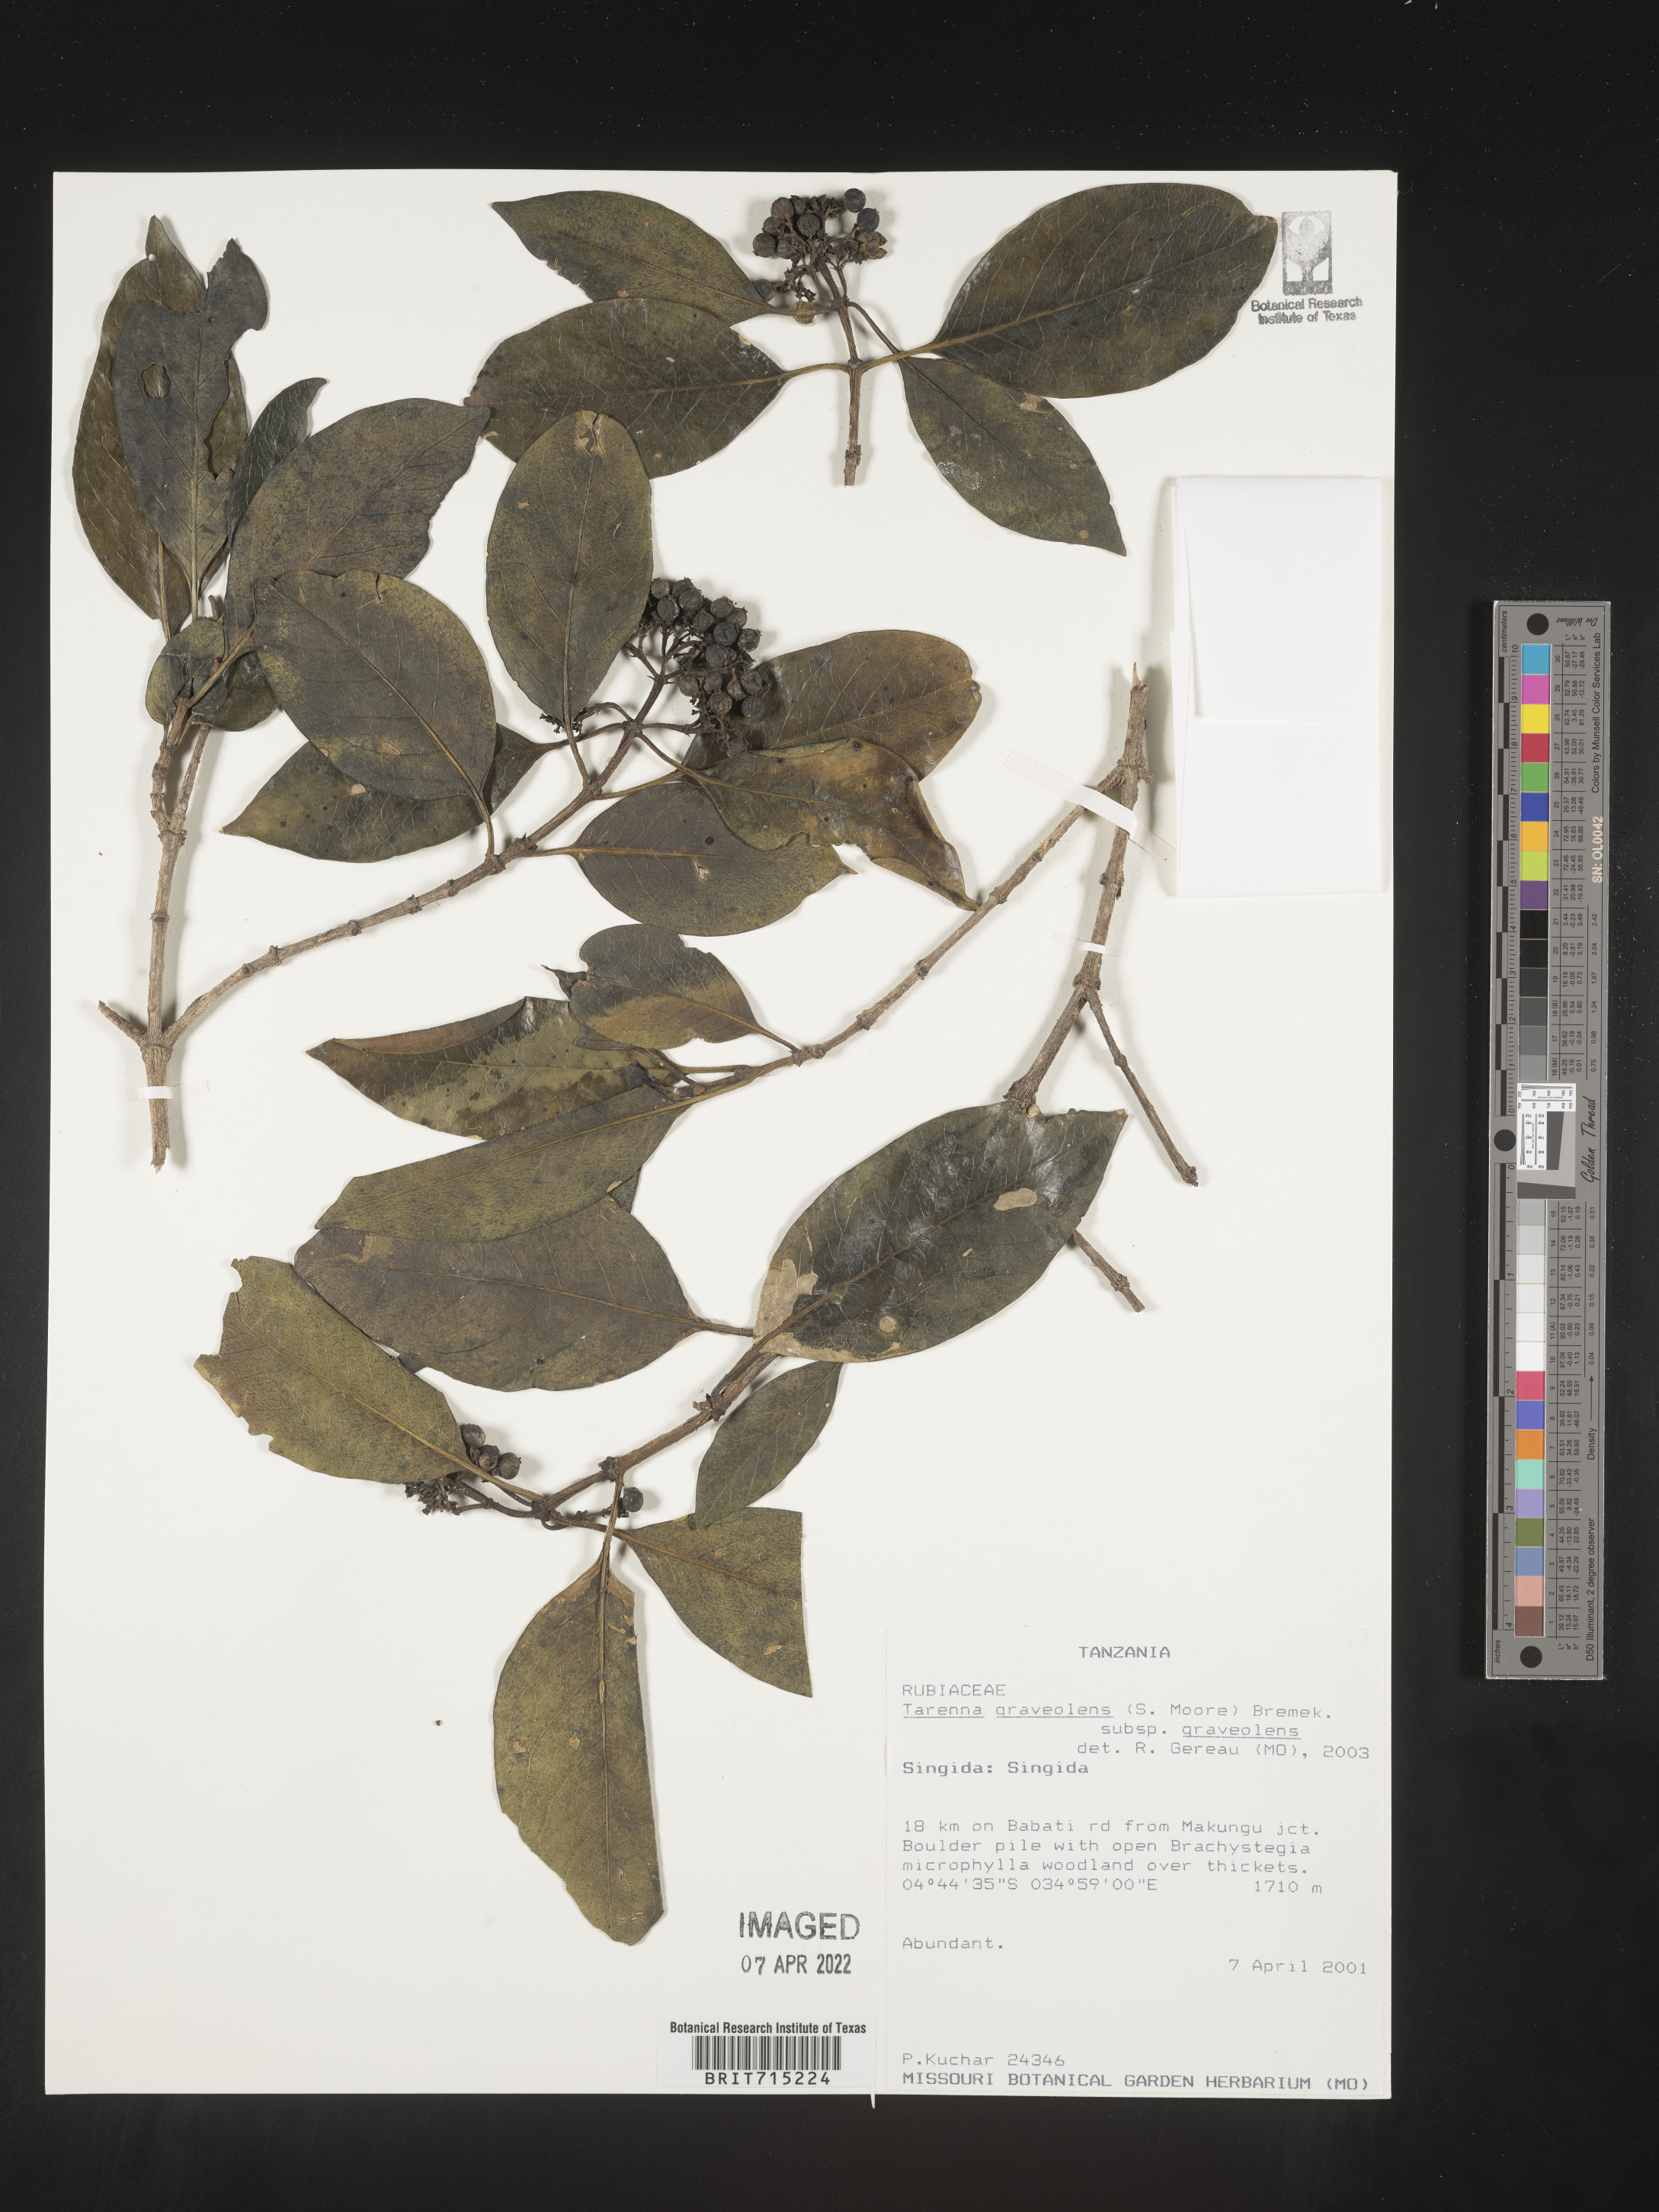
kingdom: Plantae
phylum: Tracheophyta
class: Magnoliopsida
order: Gentianales
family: Rubiaceae
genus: Tarenna
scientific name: Tarenna
